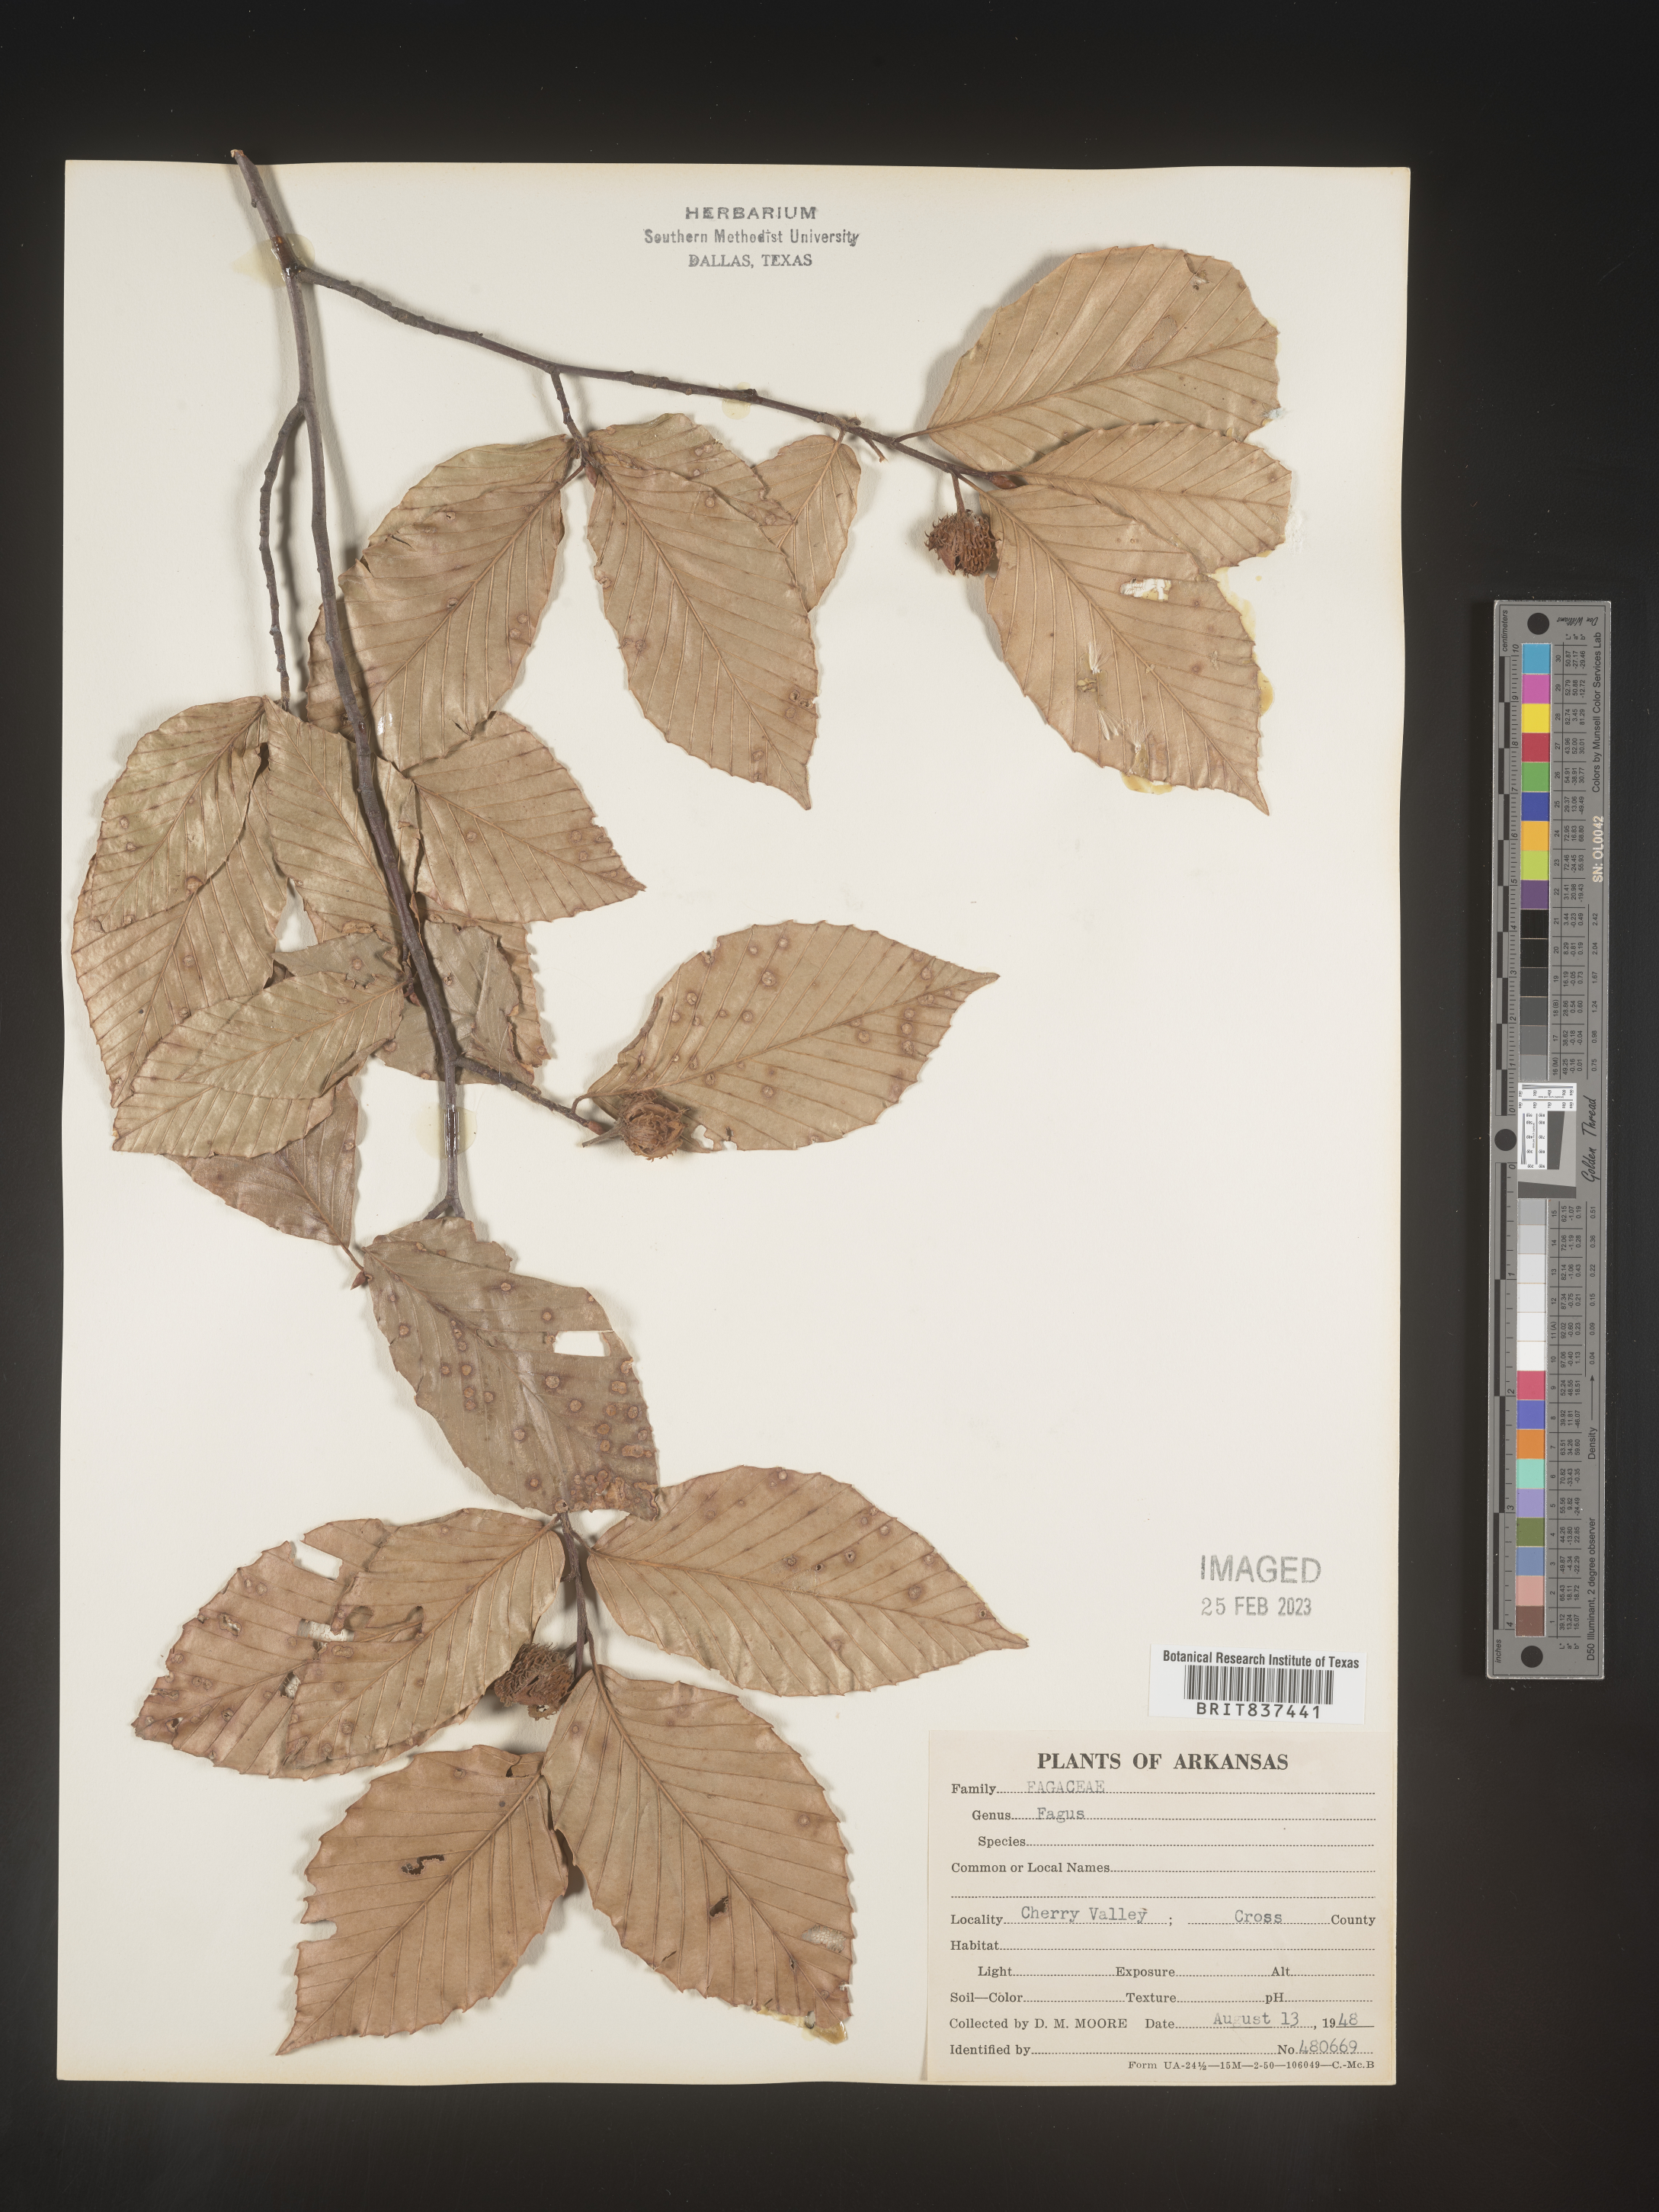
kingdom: Plantae
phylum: Tracheophyta
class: Magnoliopsida
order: Fagales
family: Fagaceae
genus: Fagus
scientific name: Fagus grandifolia
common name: American beech
